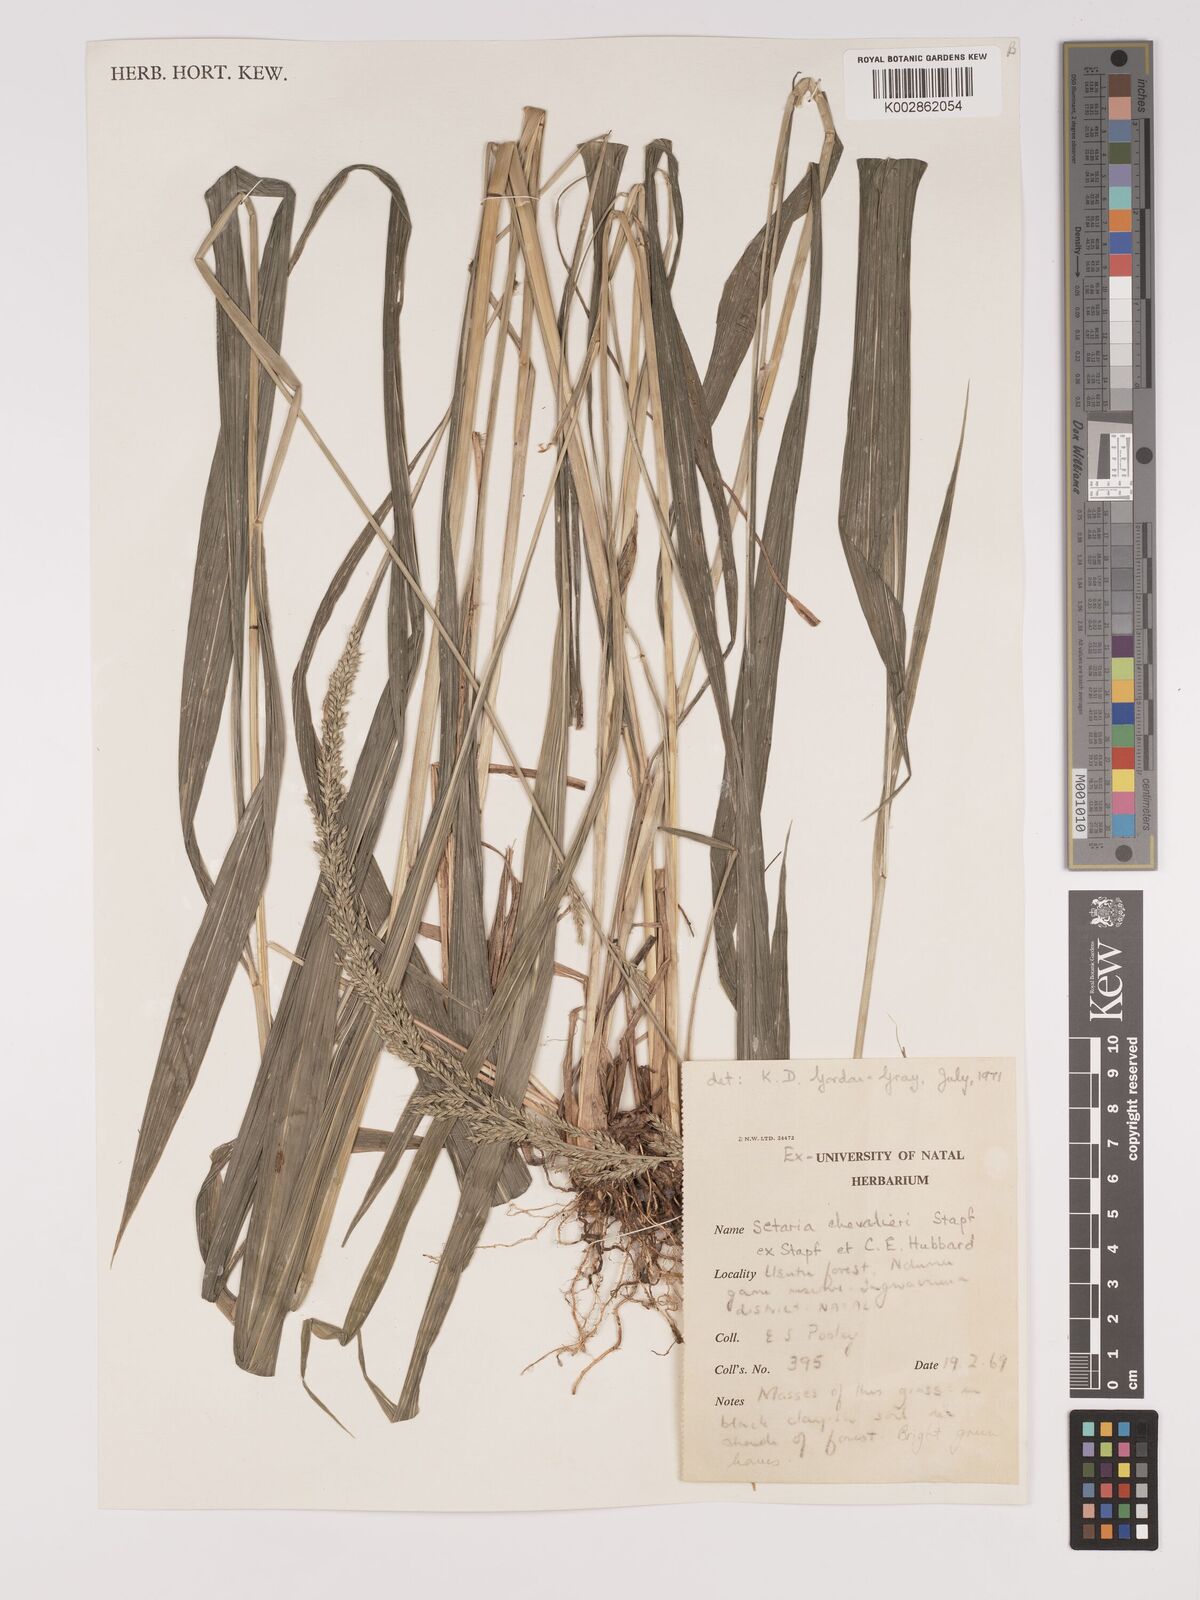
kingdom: Plantae
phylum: Tracheophyta
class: Liliopsida
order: Poales
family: Poaceae
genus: Setaria
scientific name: Setaria megaphylla
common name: Bigleaf bristlegrass
